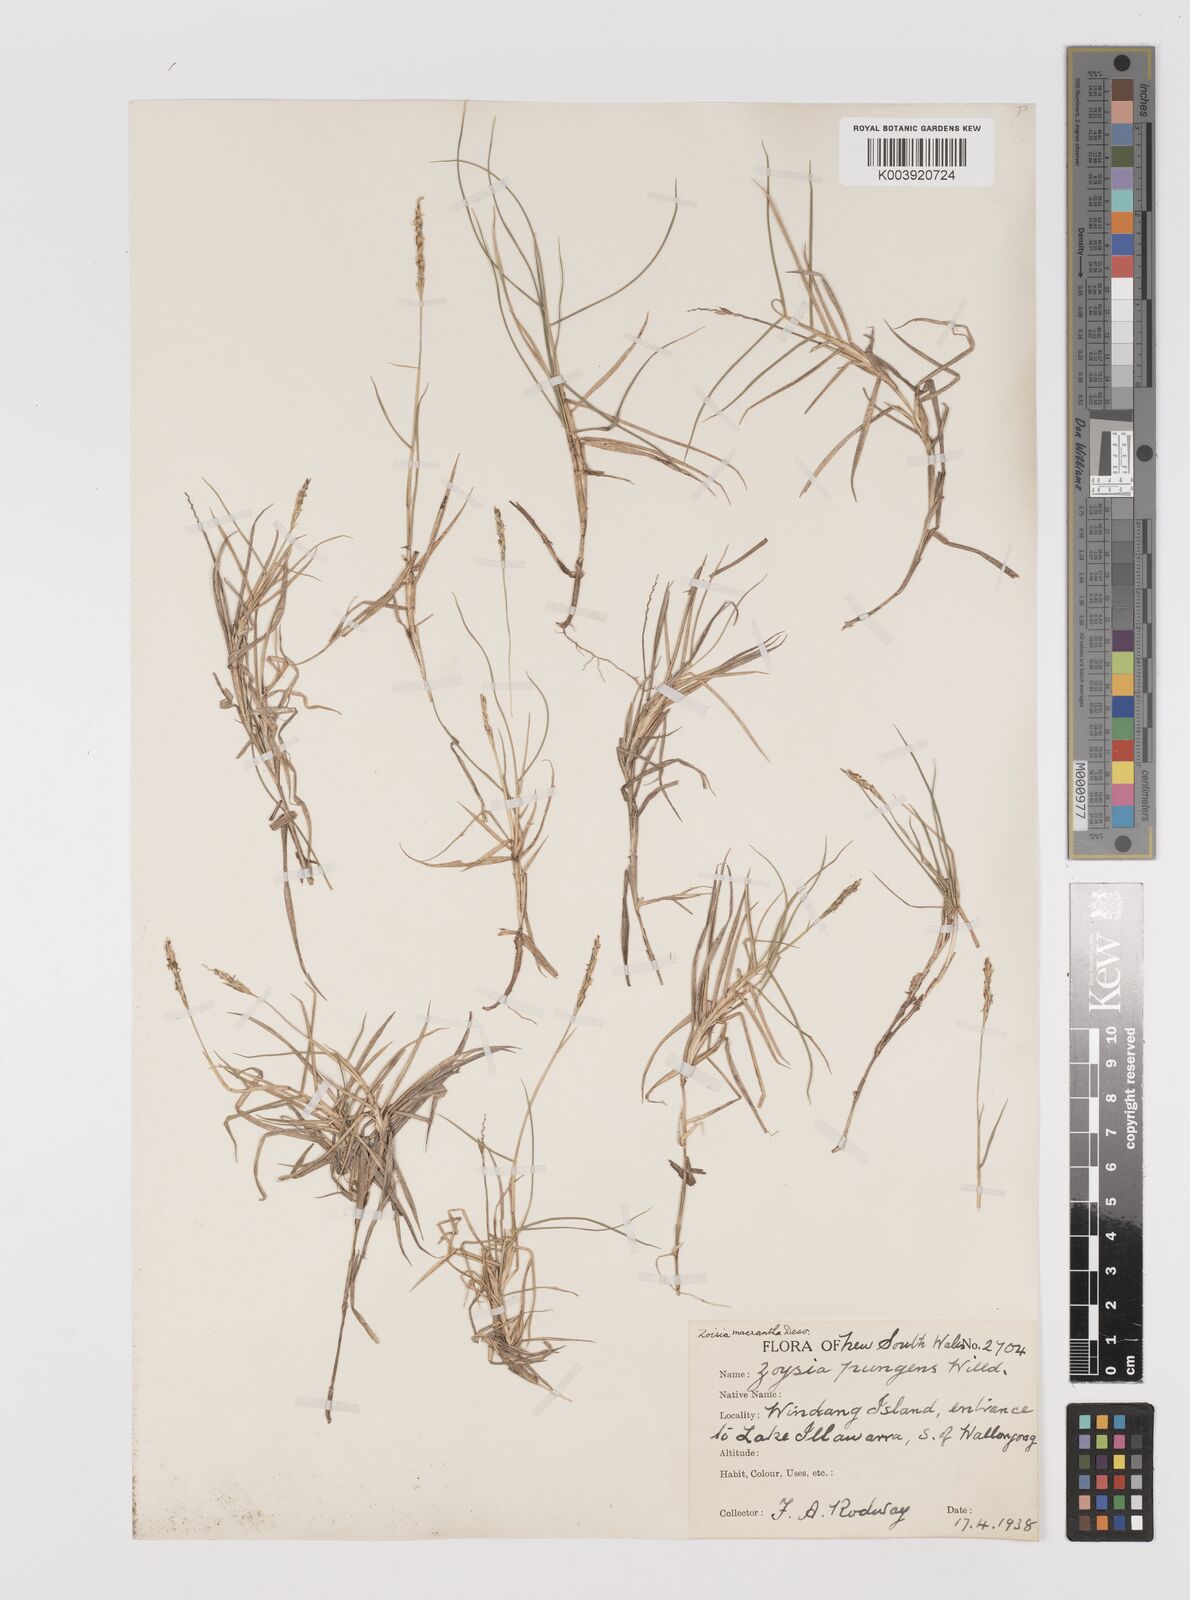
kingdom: Plantae
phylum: Tracheophyta
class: Liliopsida
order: Poales
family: Poaceae
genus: Zoysia
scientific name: Zoysia macrantha
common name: Korean lawn grass
